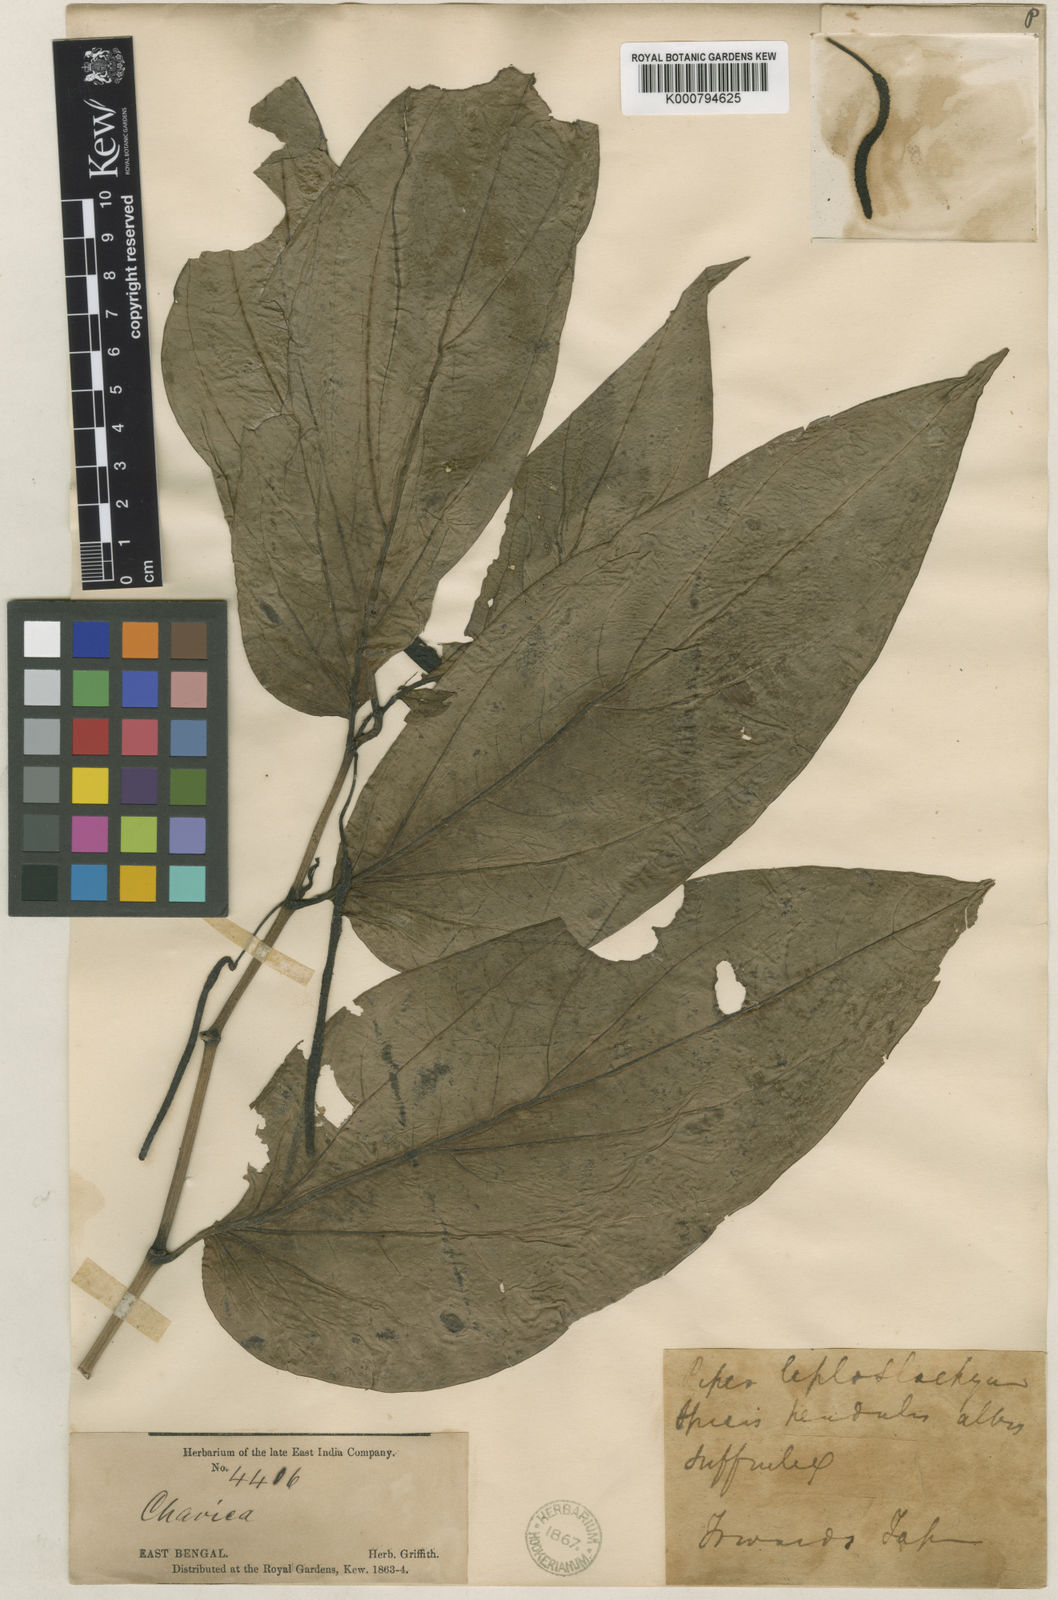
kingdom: Plantae
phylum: Tracheophyta
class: Magnoliopsida
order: Piperales
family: Piperaceae
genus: Piper
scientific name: Piper boehmeriifolium
